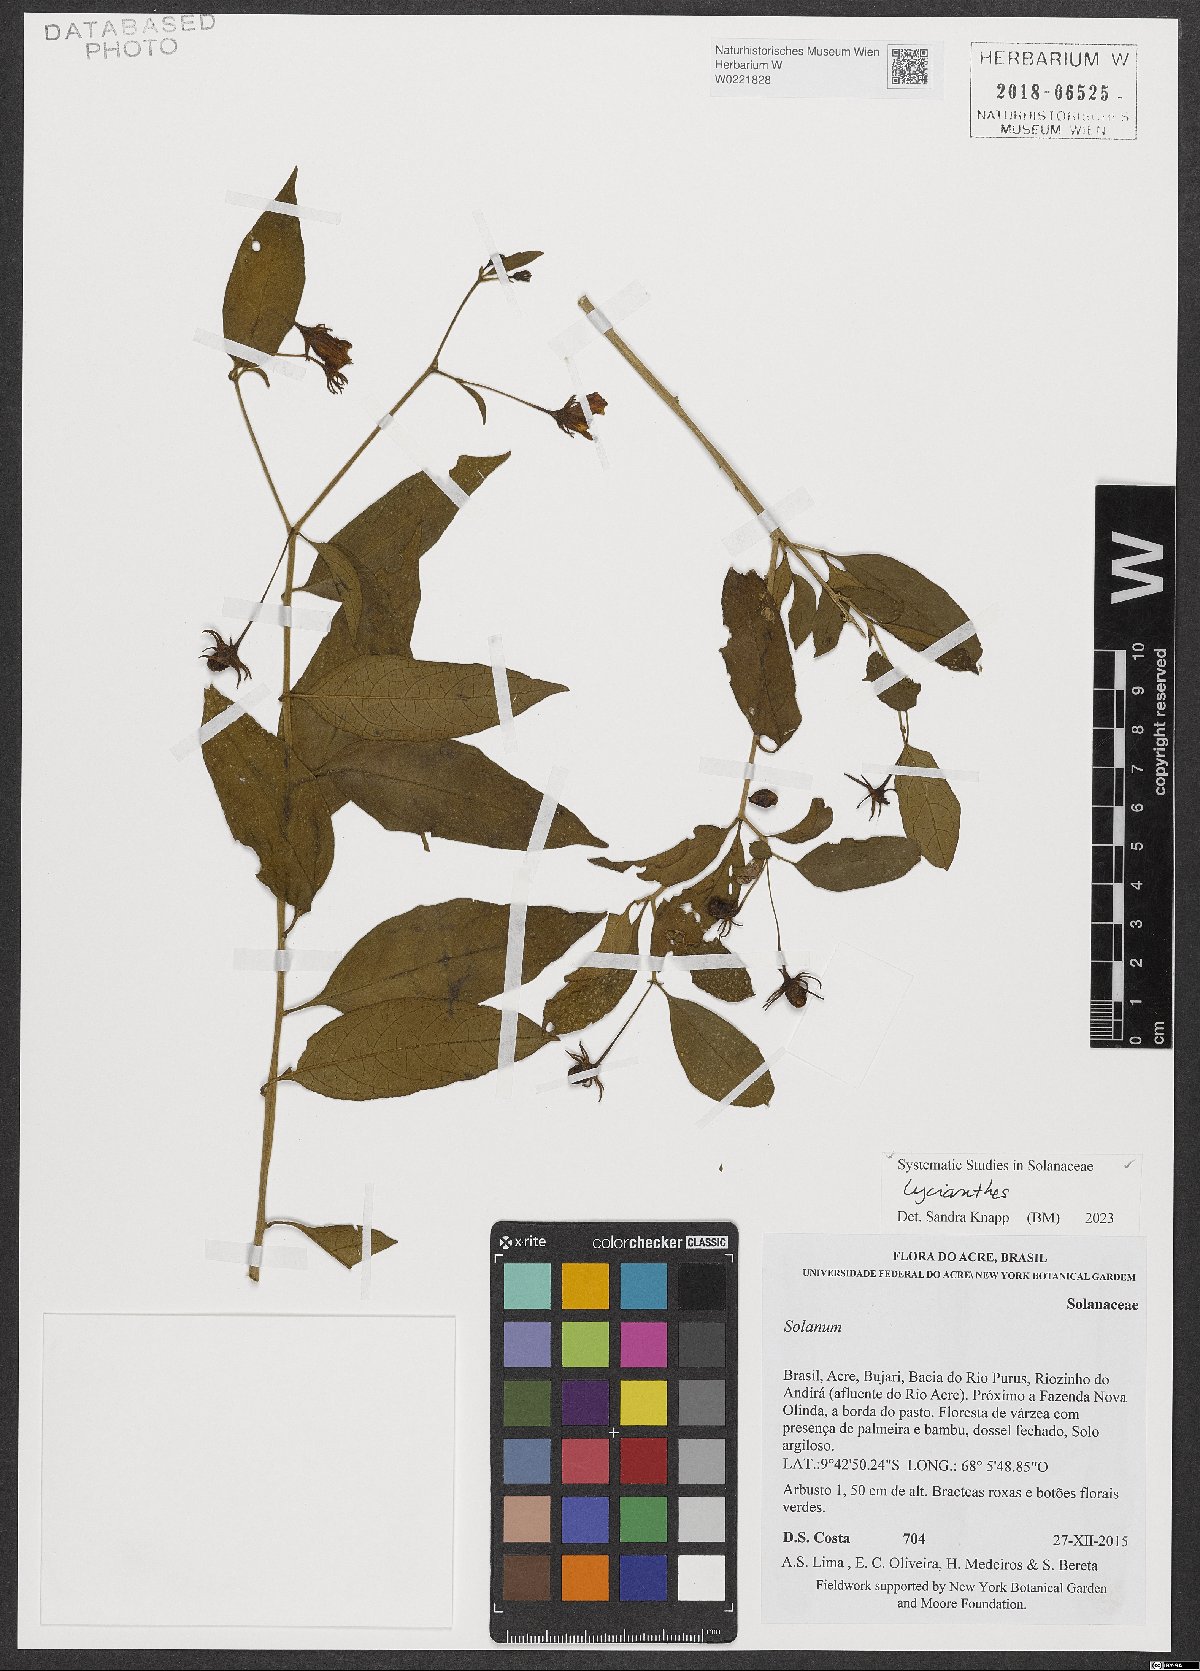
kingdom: Plantae
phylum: Tracheophyta
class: Magnoliopsida
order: Solanales
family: Solanaceae
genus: Lycianthes
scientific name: Lycianthes
